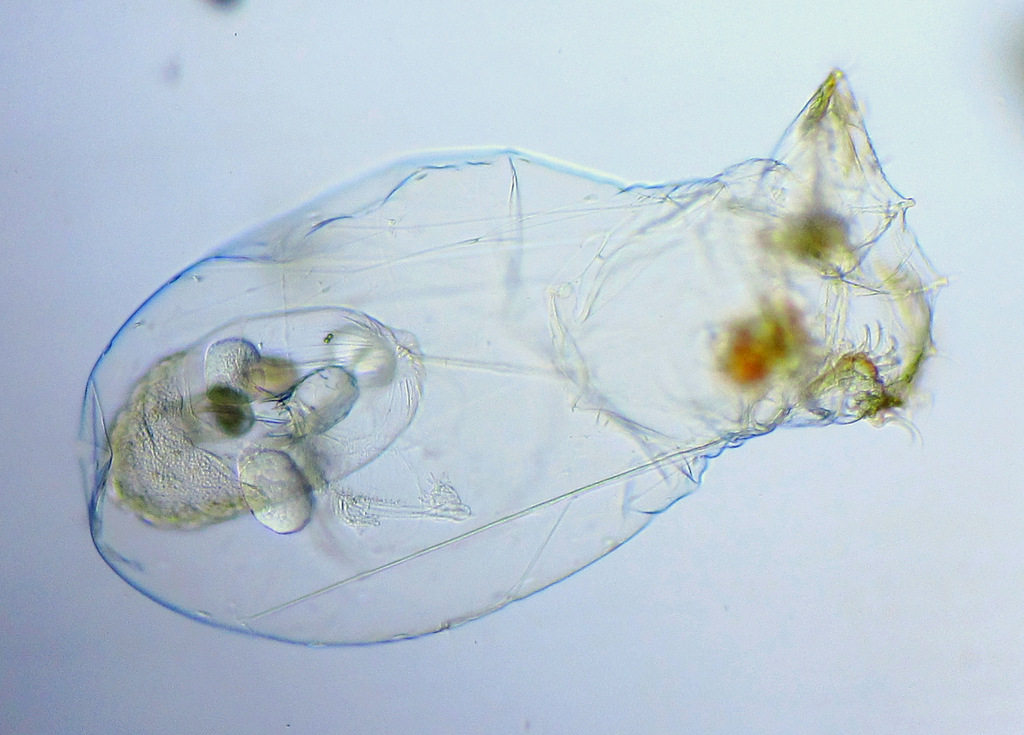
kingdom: Animalia
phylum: Rotifera
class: Eurotatoria
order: Ploima
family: Asplanchnidae
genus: Asplanchna
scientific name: Asplanchna priodonta
